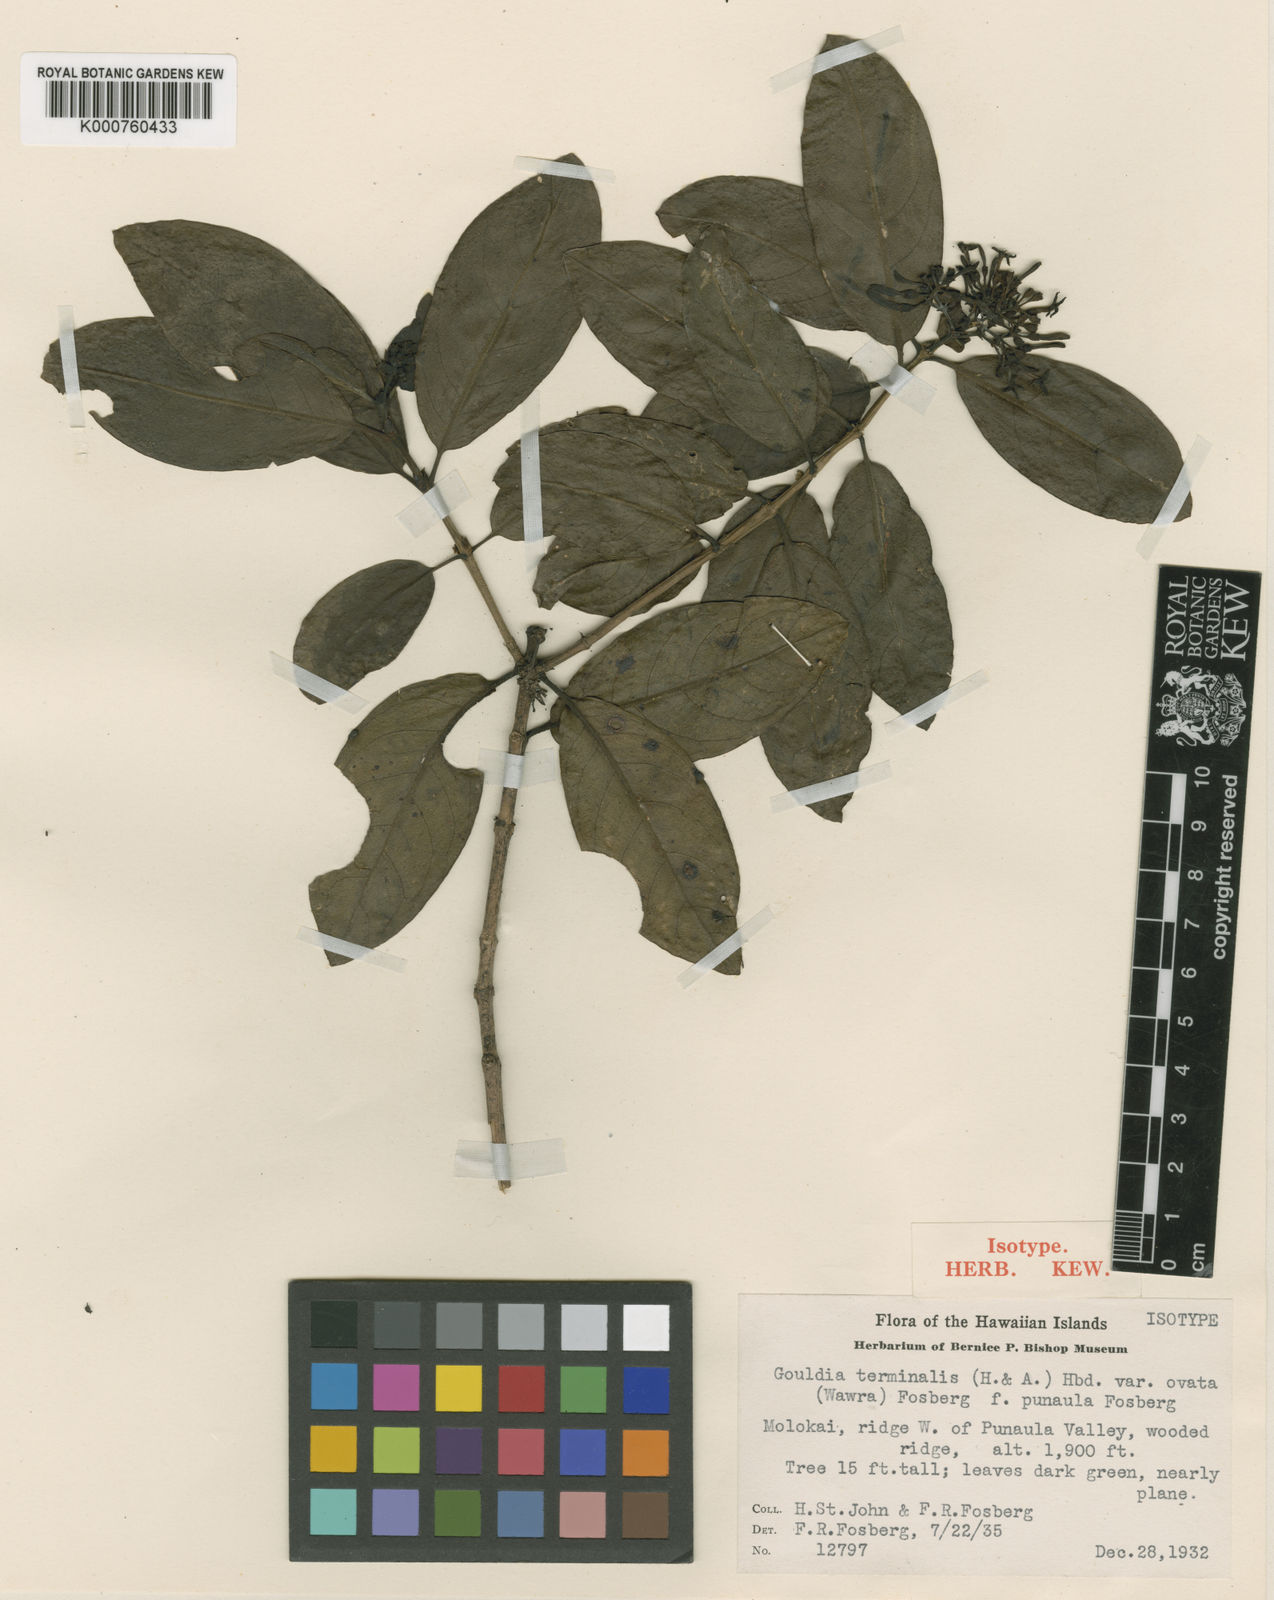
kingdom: Plantae
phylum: Tracheophyta
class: Magnoliopsida
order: Gentianales
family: Rubiaceae
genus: Kadua
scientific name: Kadua affinis
